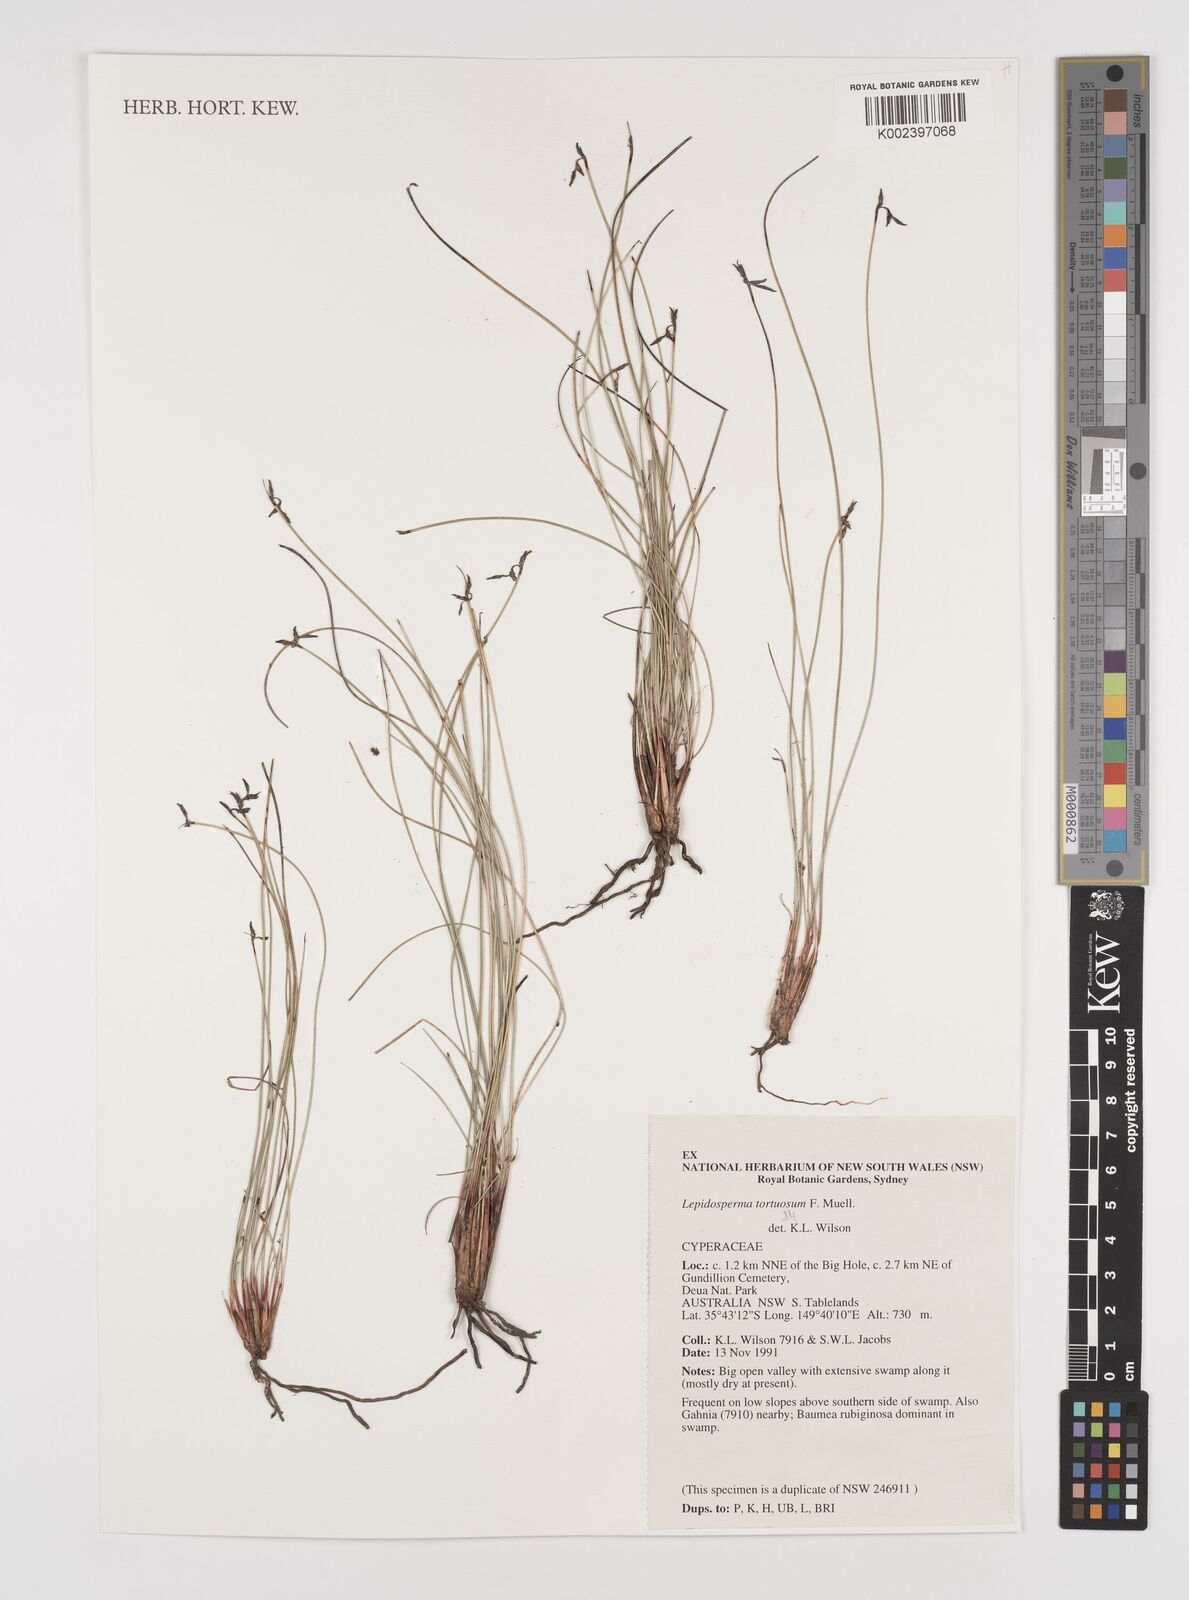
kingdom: Plantae
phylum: Tracheophyta
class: Liliopsida
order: Poales
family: Cyperaceae
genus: Lepidosperma
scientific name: Lepidosperma tortuosum
